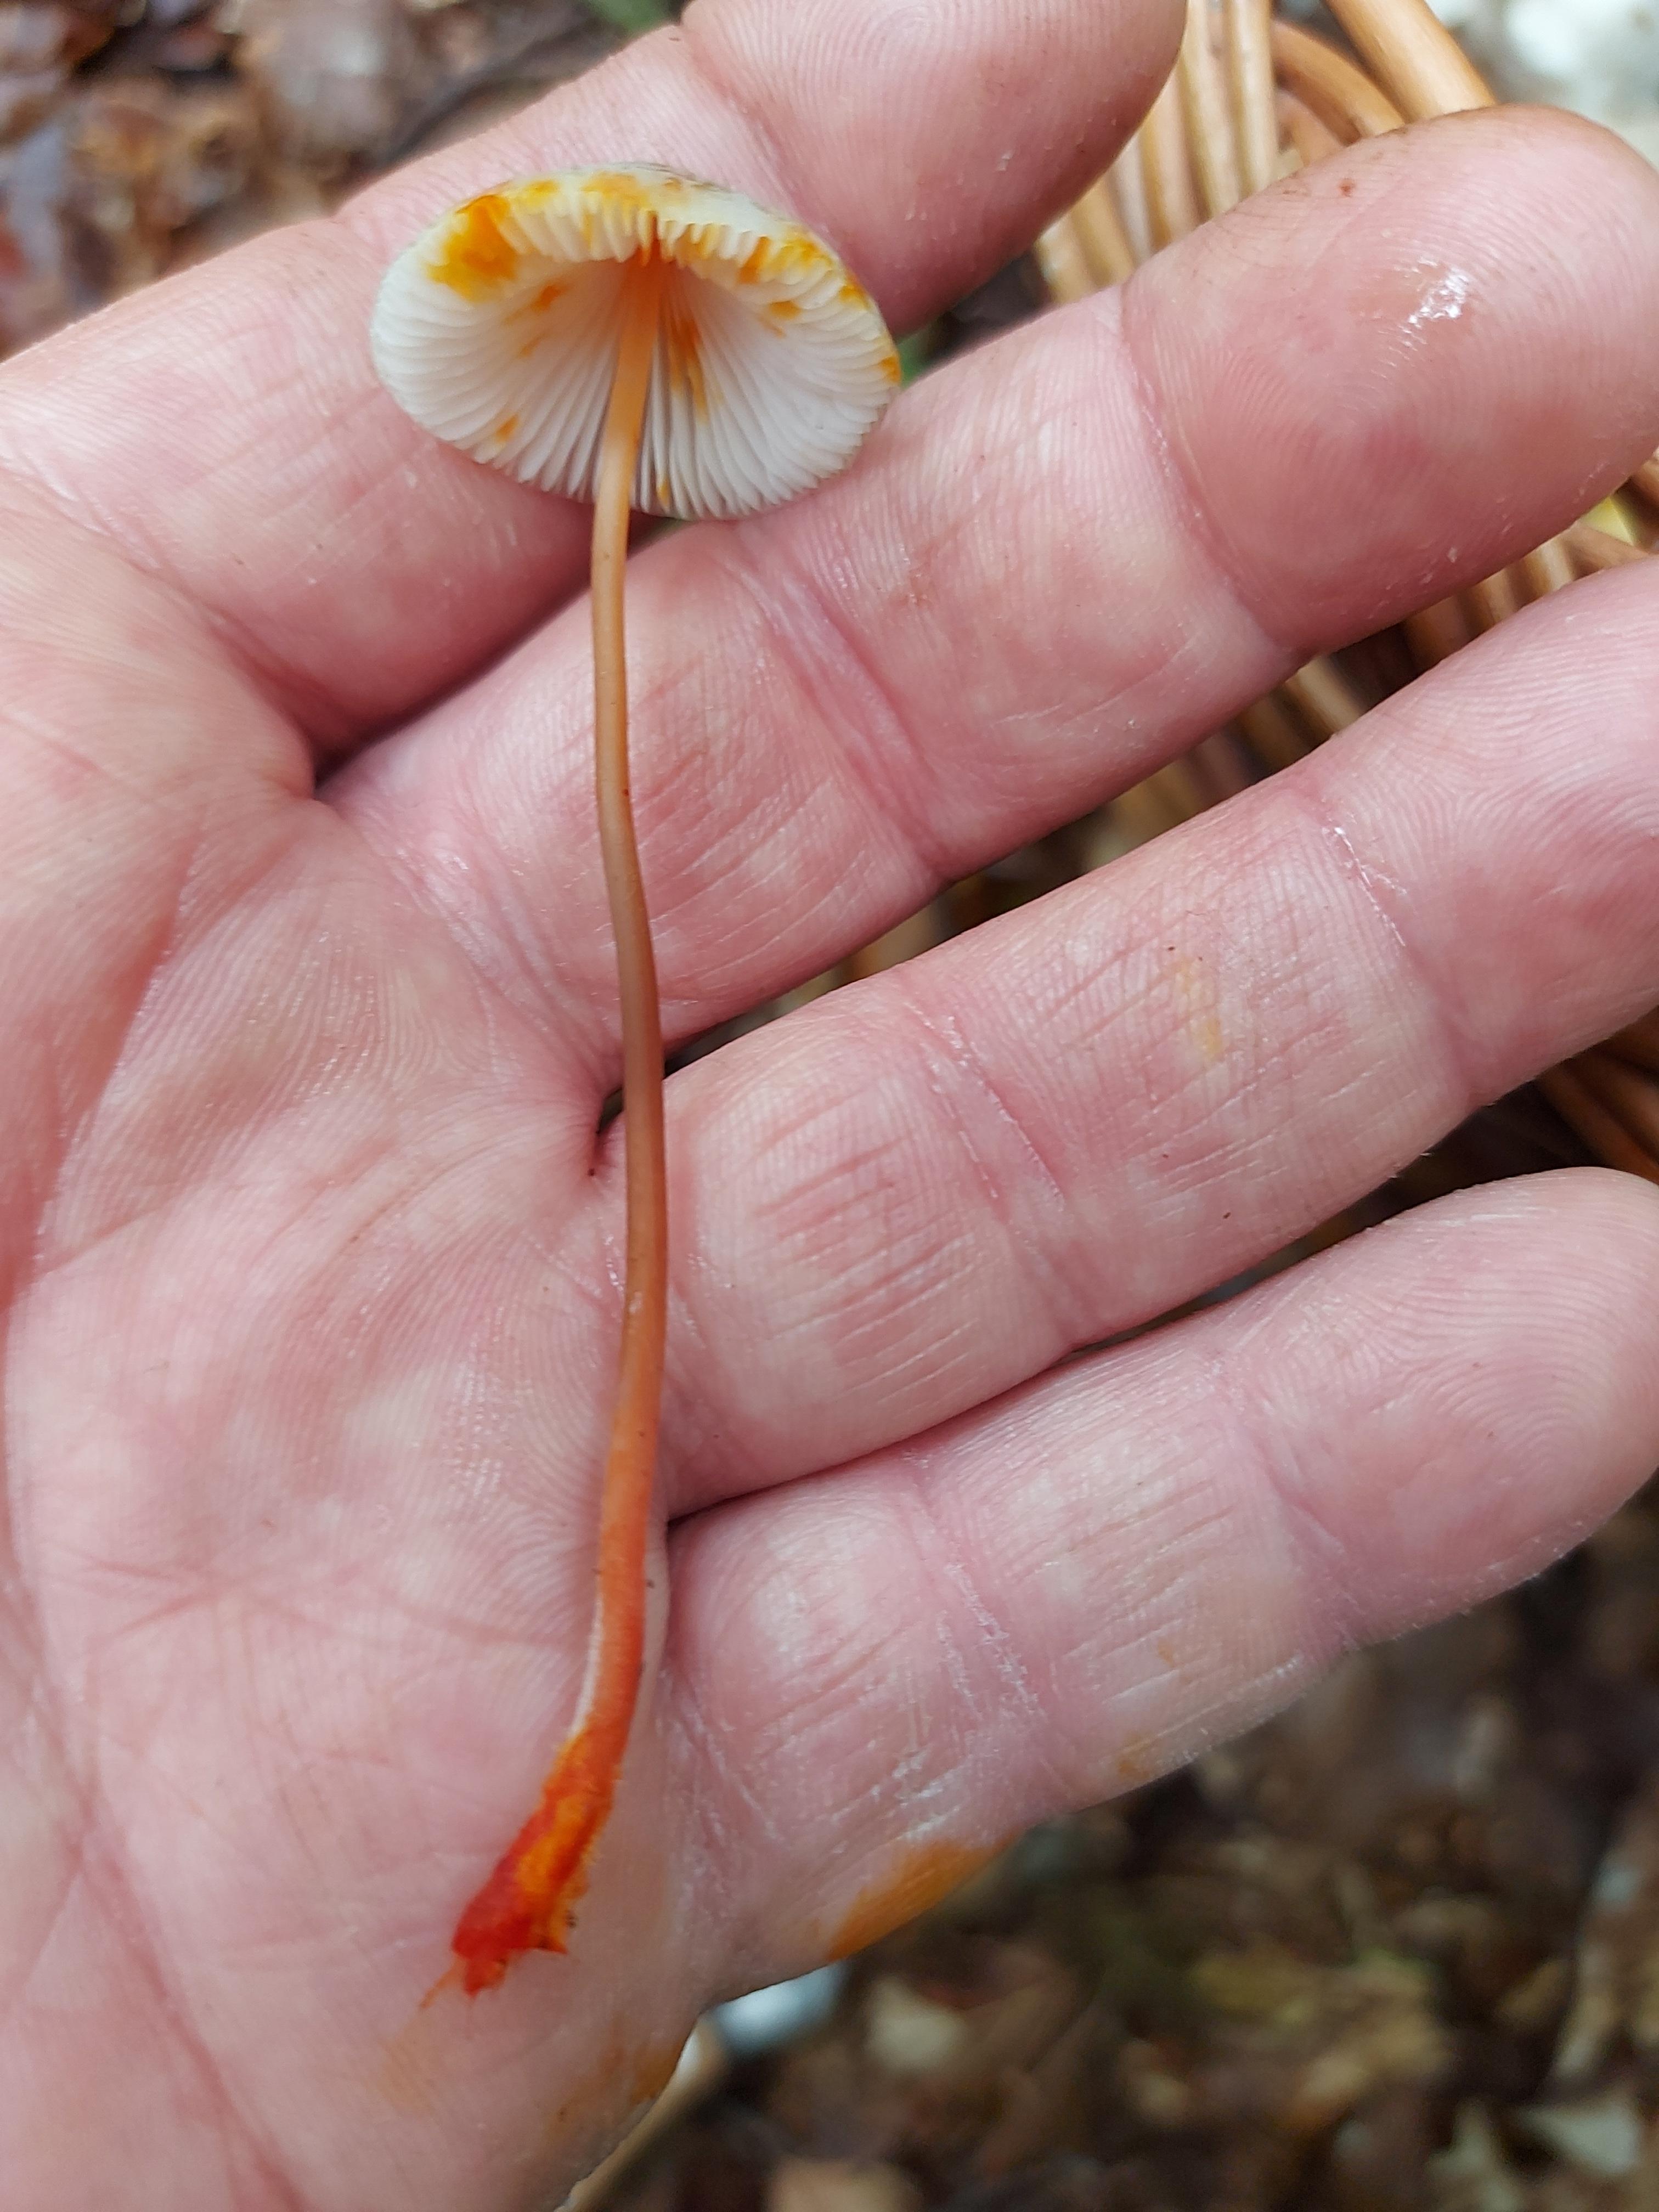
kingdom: Fungi
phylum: Basidiomycota
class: Agaricomycetes
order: Agaricales
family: Mycenaceae
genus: Mycena
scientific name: Mycena crocata
